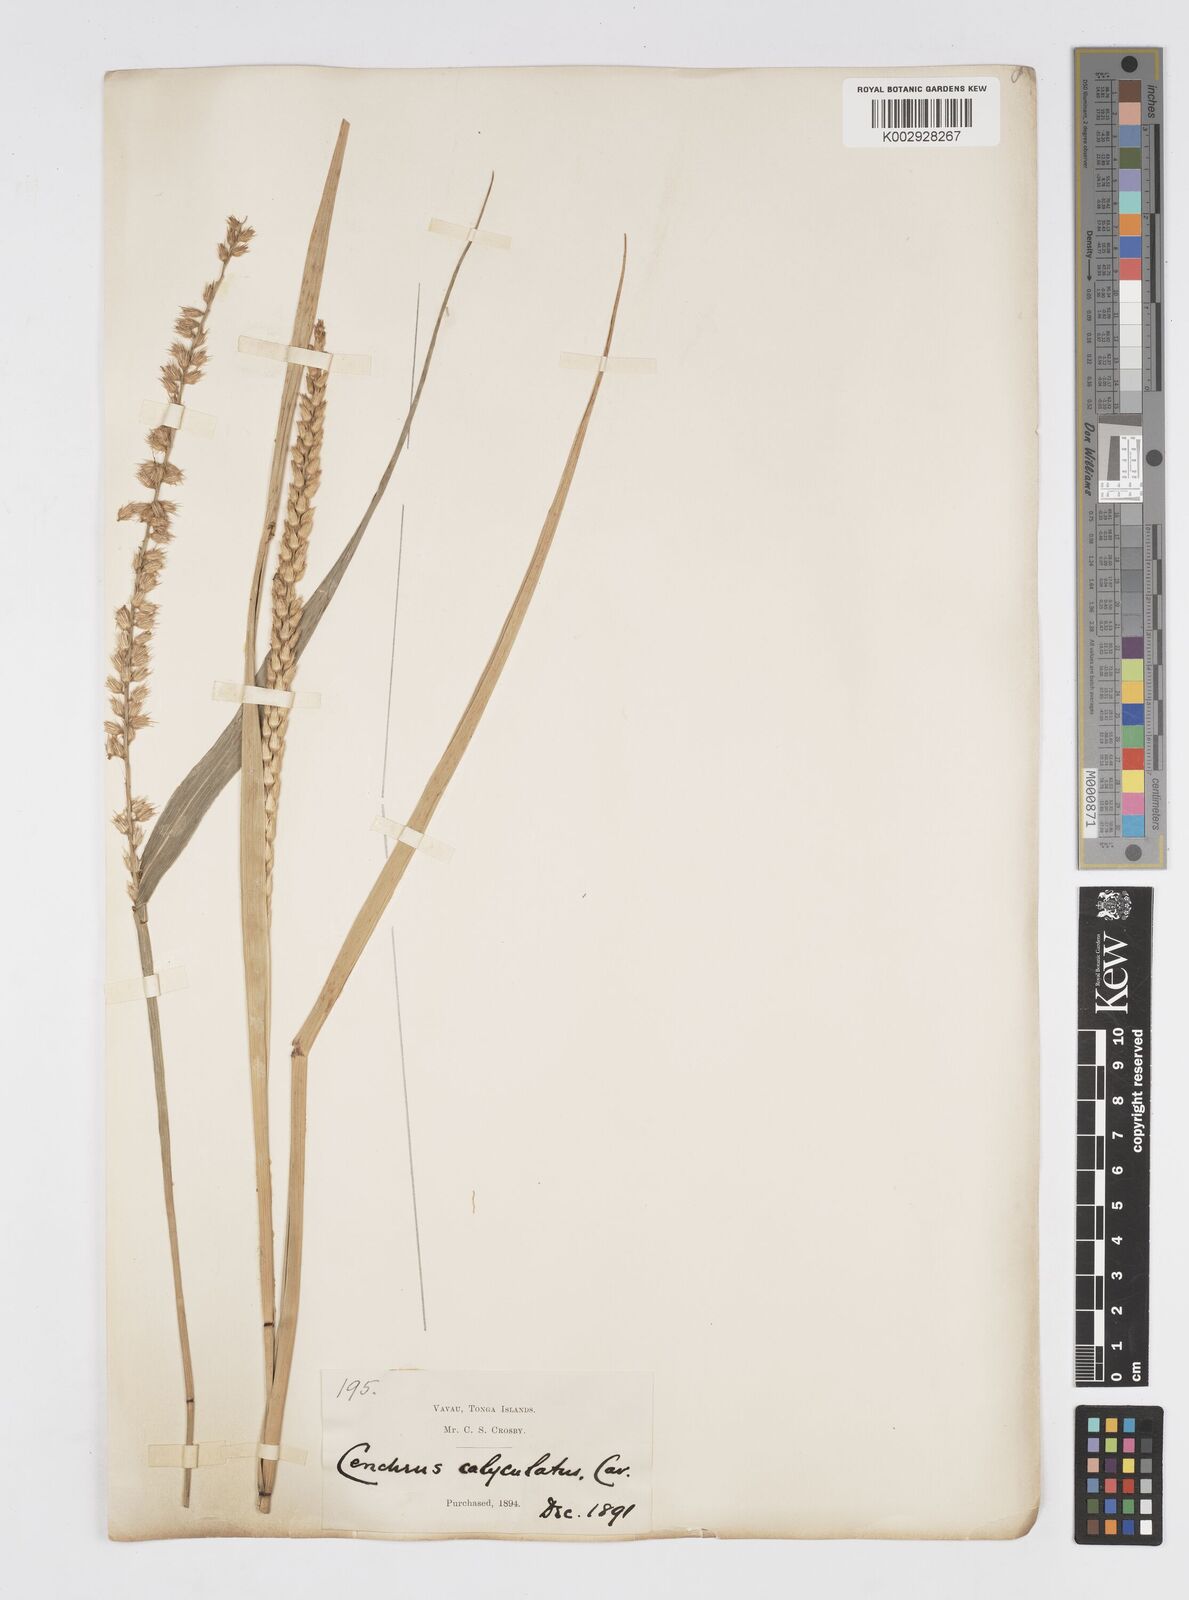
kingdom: Plantae
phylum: Tracheophyta
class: Liliopsida
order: Poales
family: Poaceae
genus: Cenchrus
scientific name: Cenchrus caliculatus
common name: Large bur grass
